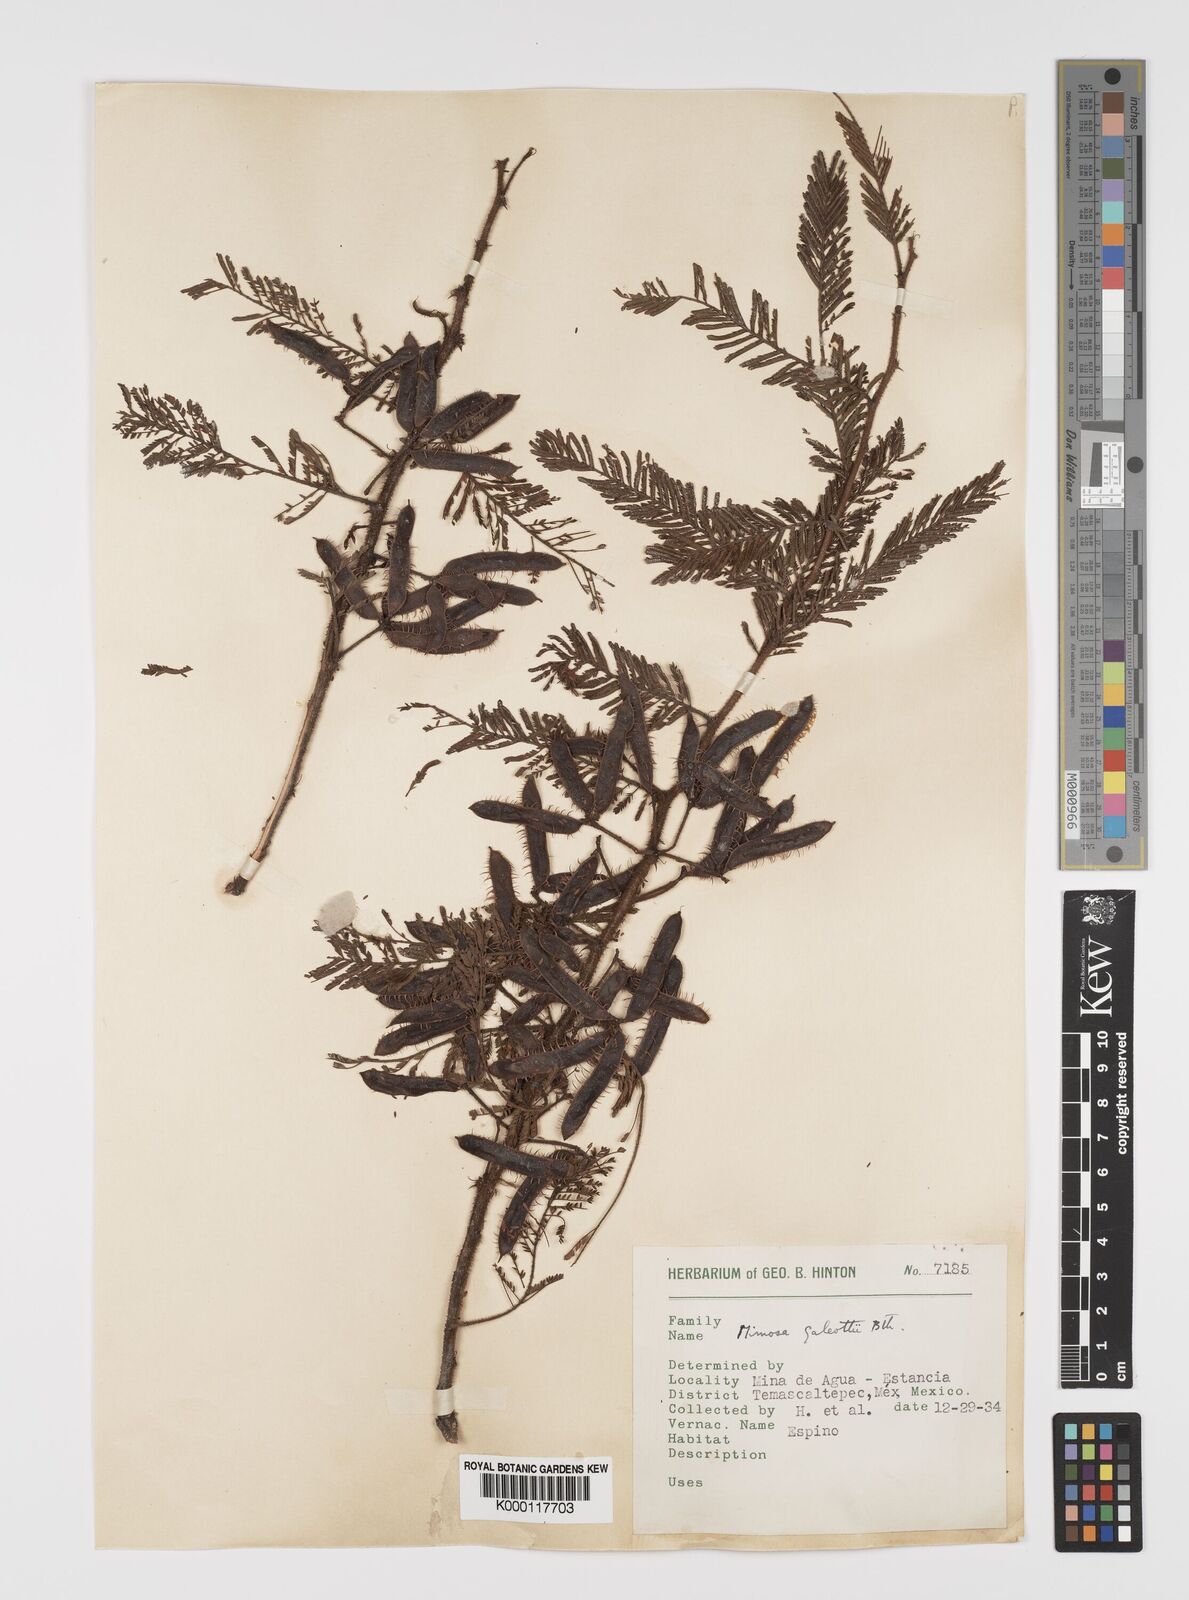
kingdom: Plantae
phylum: Tracheophyta
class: Magnoliopsida
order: Fabales
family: Fabaceae
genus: Mimosa
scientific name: Mimosa galeottii
